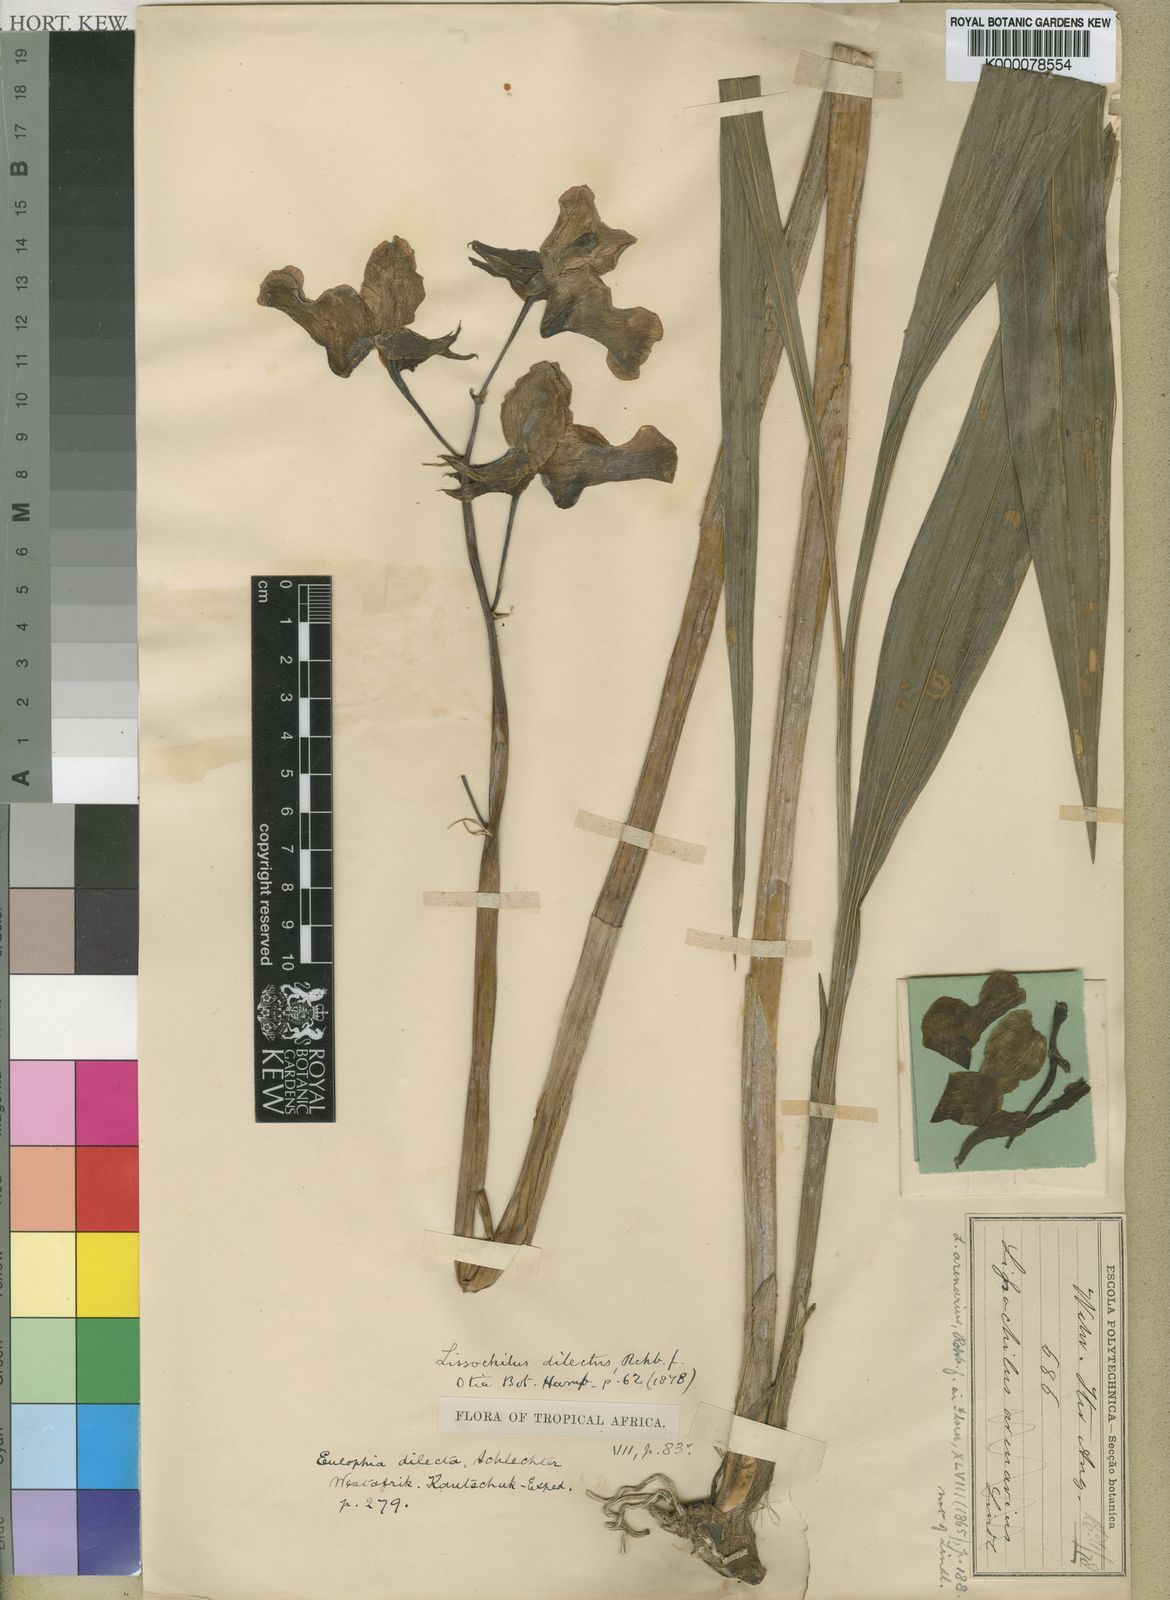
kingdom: Plantae
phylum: Tracheophyta
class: Liliopsida
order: Asparagales
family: Orchidaceae
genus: Eulophia
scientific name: Eulophia cucullata
